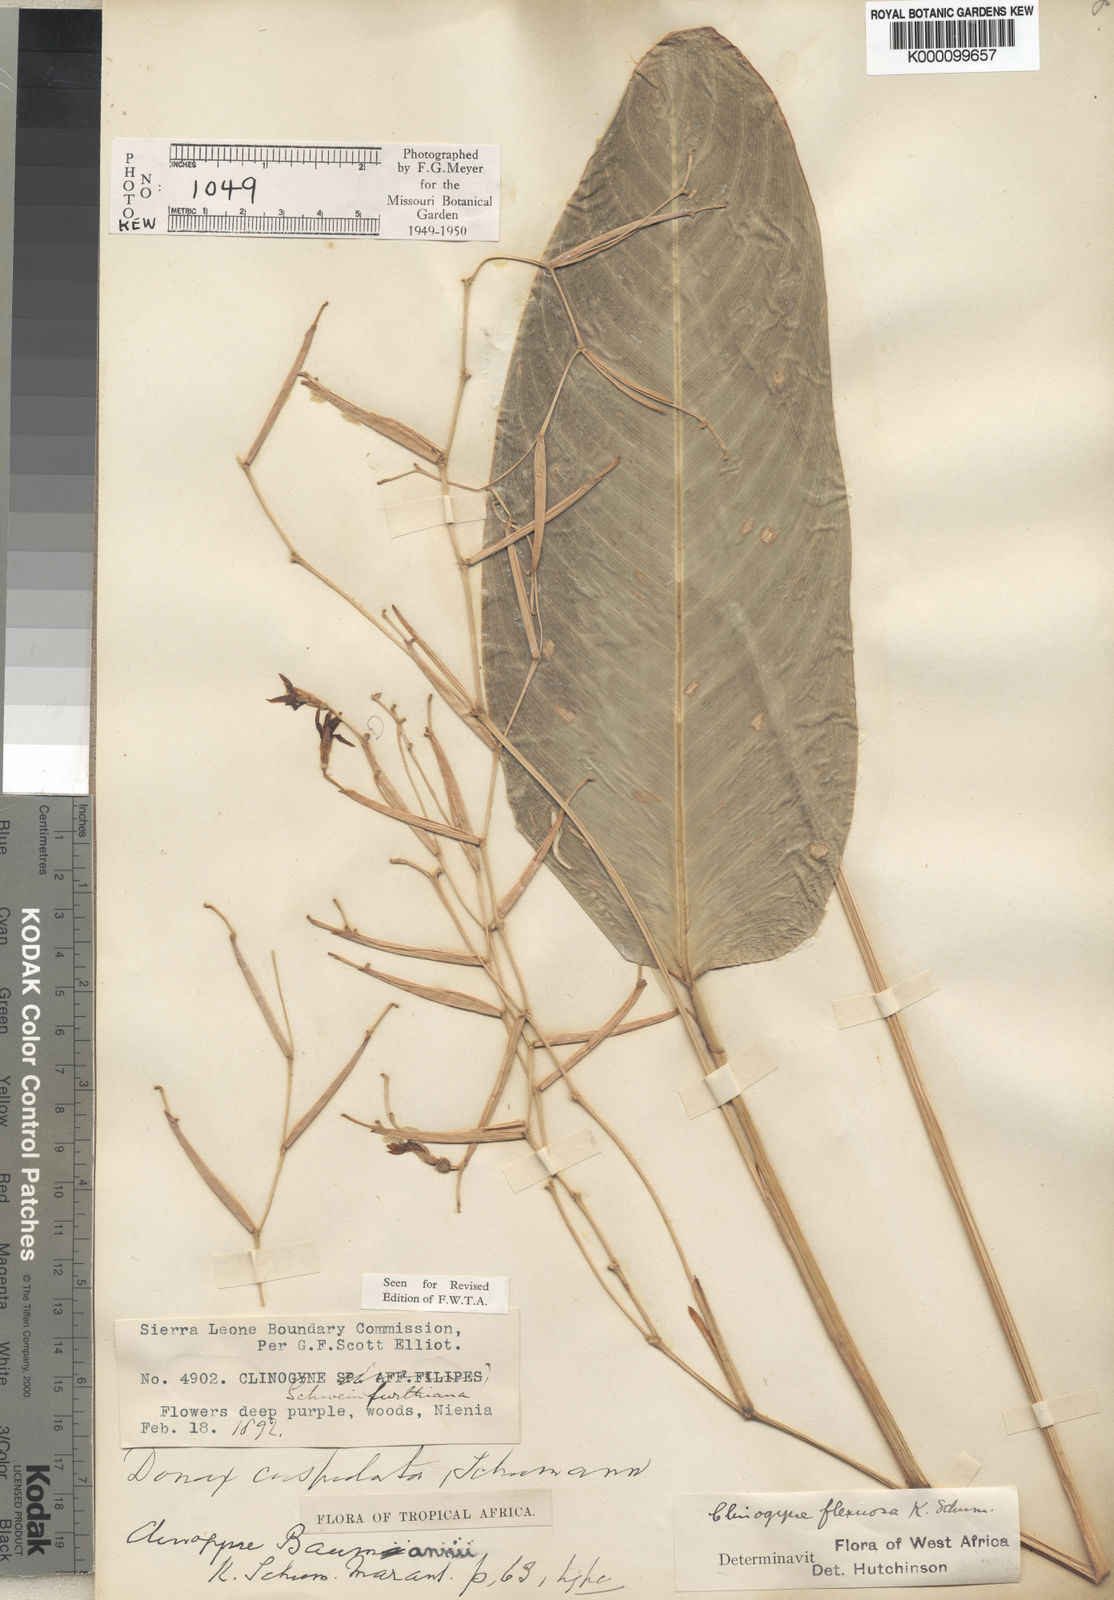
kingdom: Plantae
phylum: Tracheophyta
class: Liliopsida
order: Zingiberales
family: Marantaceae
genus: Marantochloa
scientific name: Marantochloa
